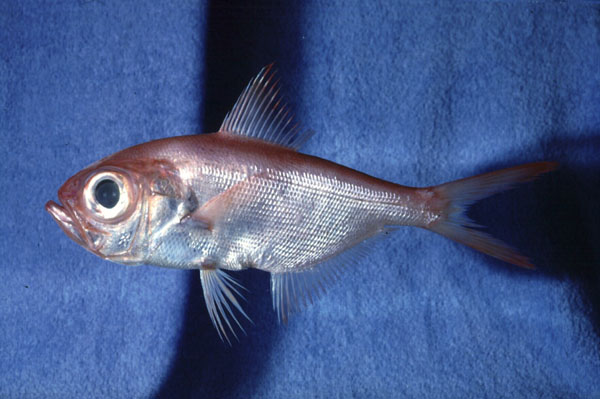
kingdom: Animalia
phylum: Chordata
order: Beryciformes
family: Berycidae
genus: Beryx
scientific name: Beryx splendens
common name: Lowe's beryx
